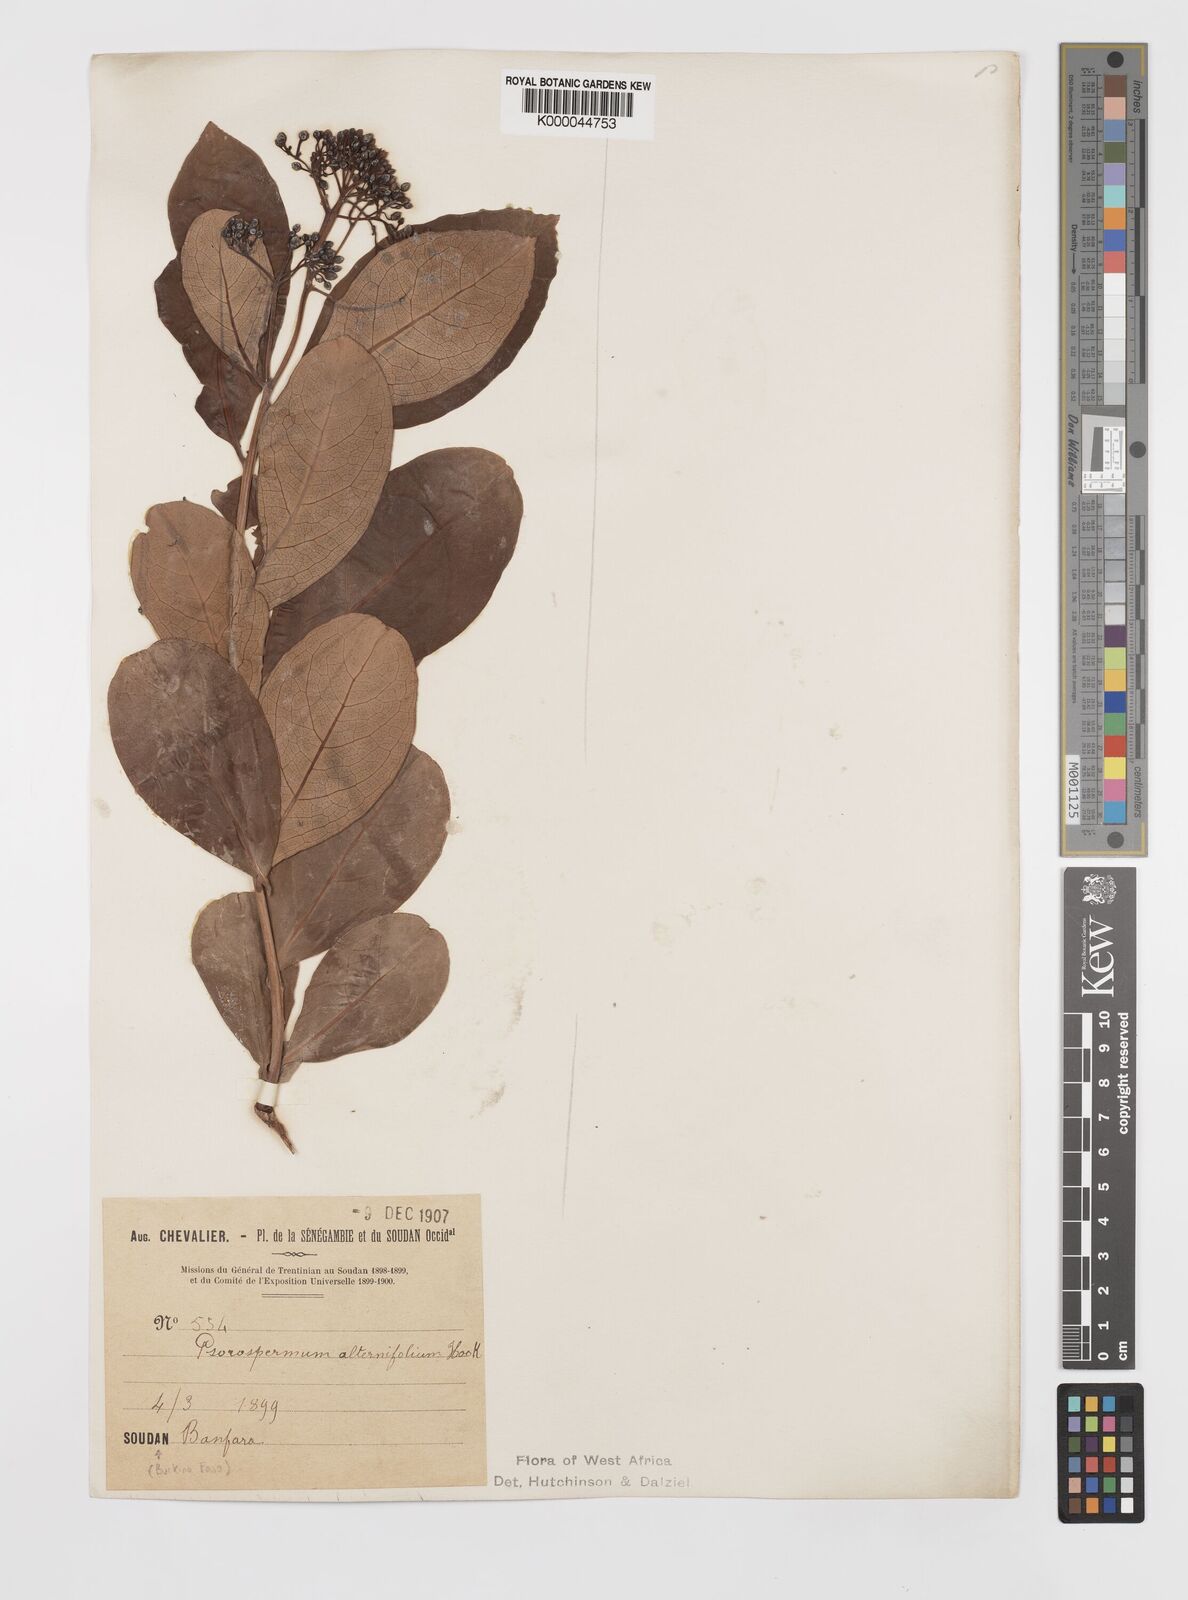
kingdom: Plantae
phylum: Tracheophyta
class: Magnoliopsida
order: Malpighiales
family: Hypericaceae
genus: Psorospermum
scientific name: Psorospermum alternifolium
